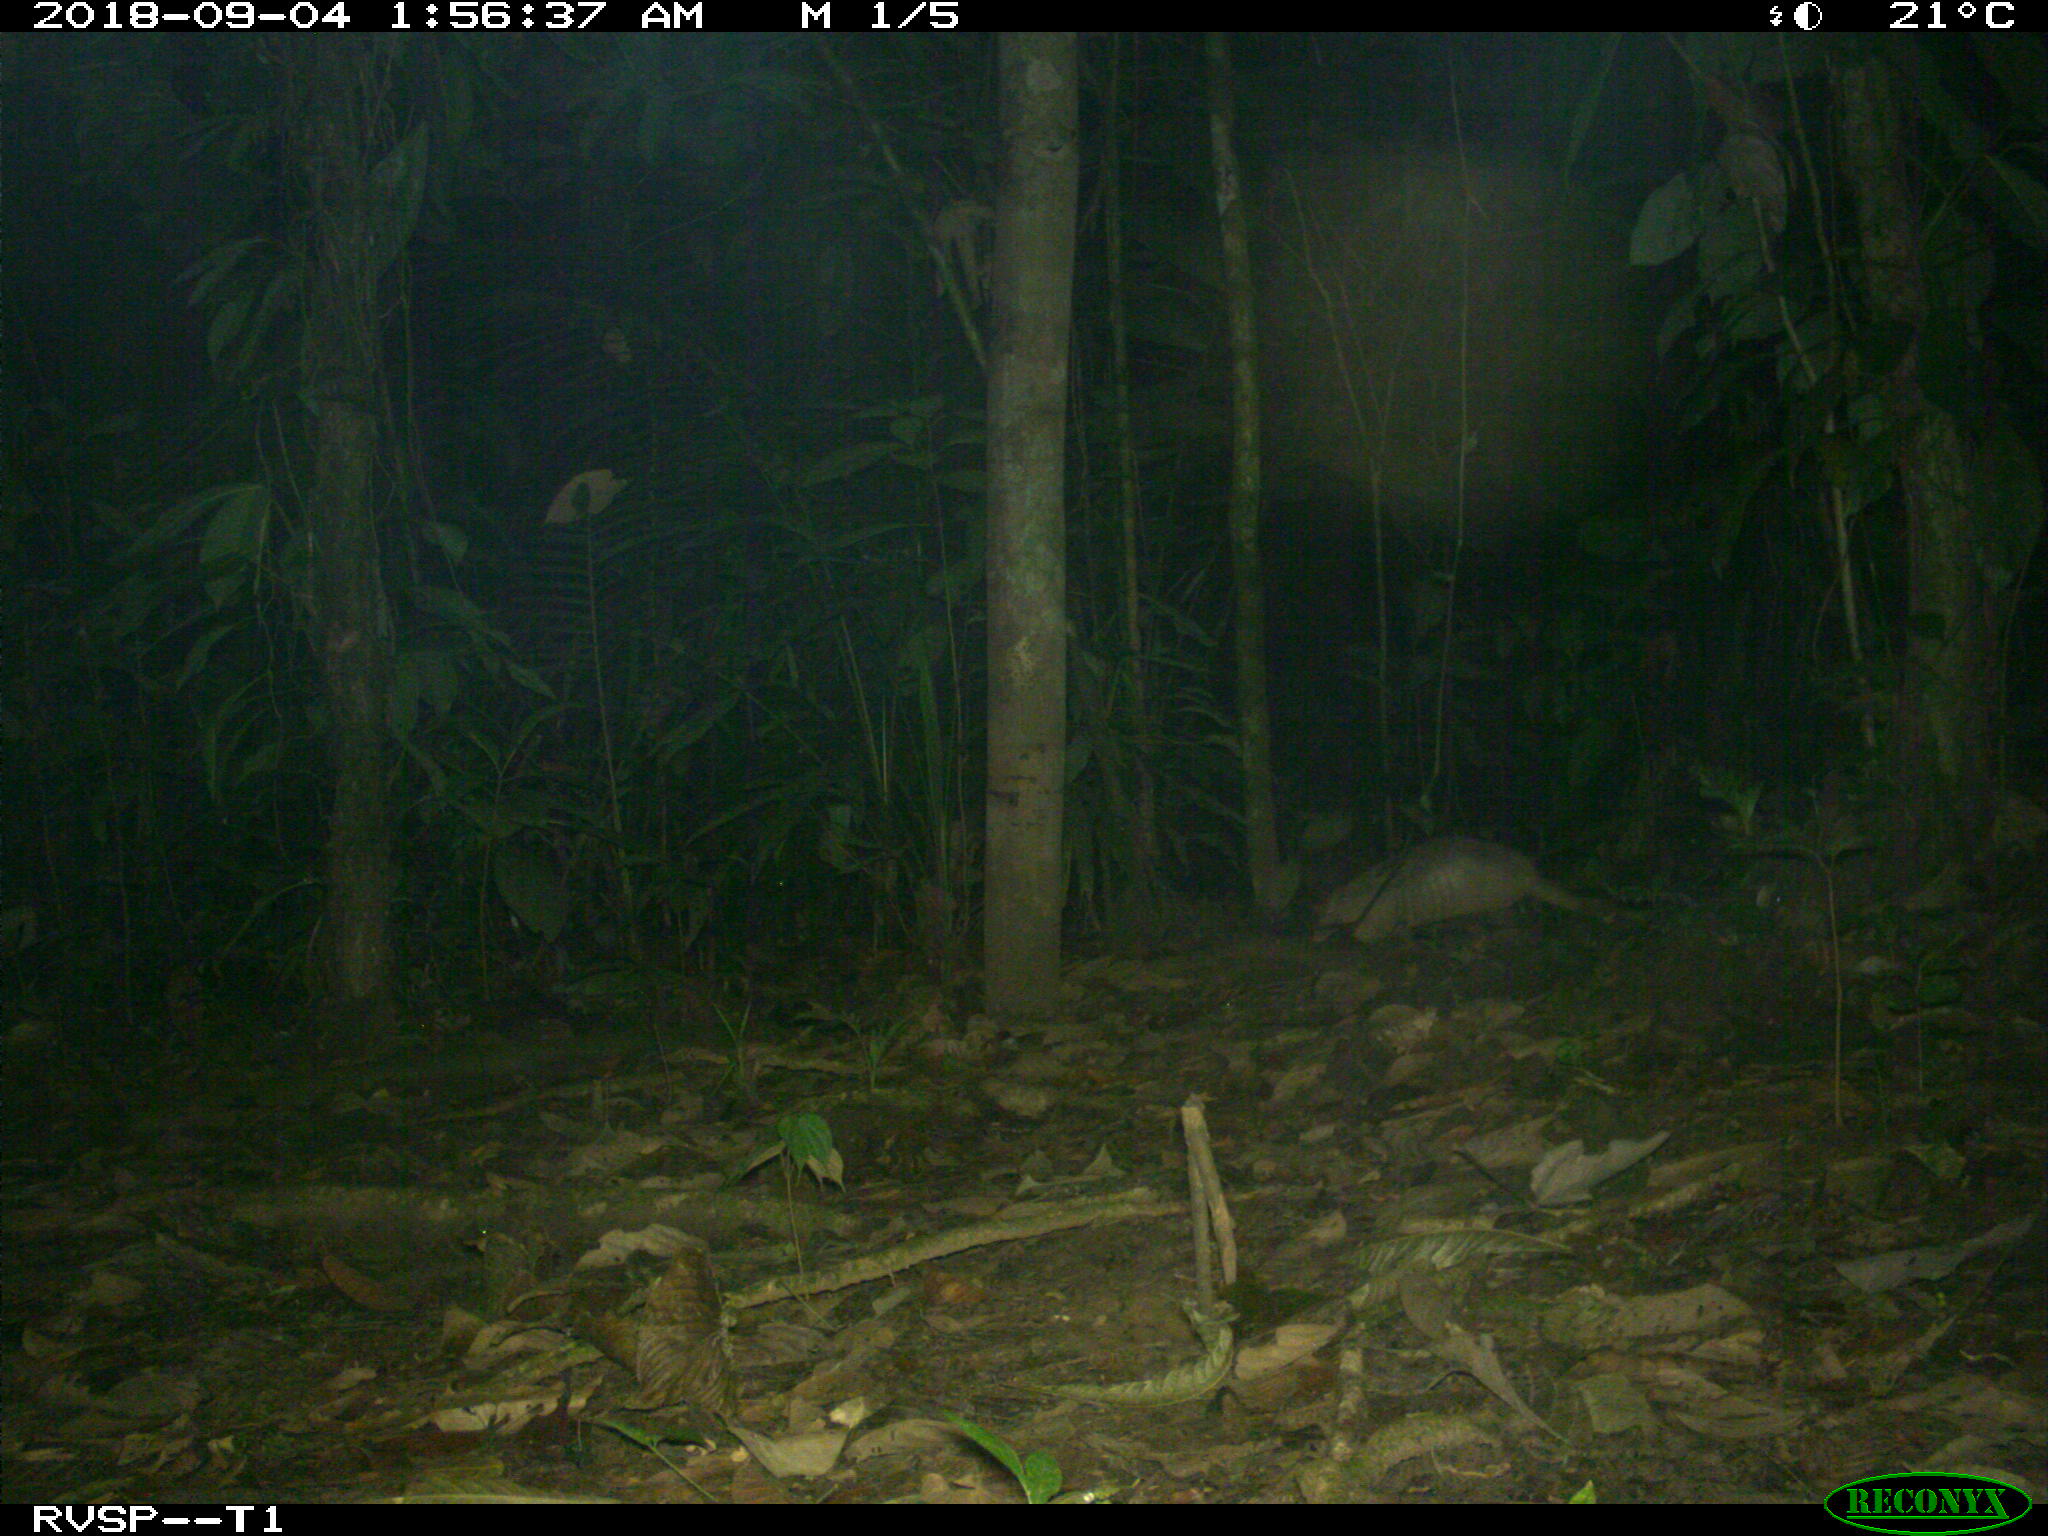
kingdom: Animalia
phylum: Chordata
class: Mammalia
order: Cingulata
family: Dasypodidae
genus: Dasypus
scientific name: Dasypus novemcinctus
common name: Nine-banded armadillo
